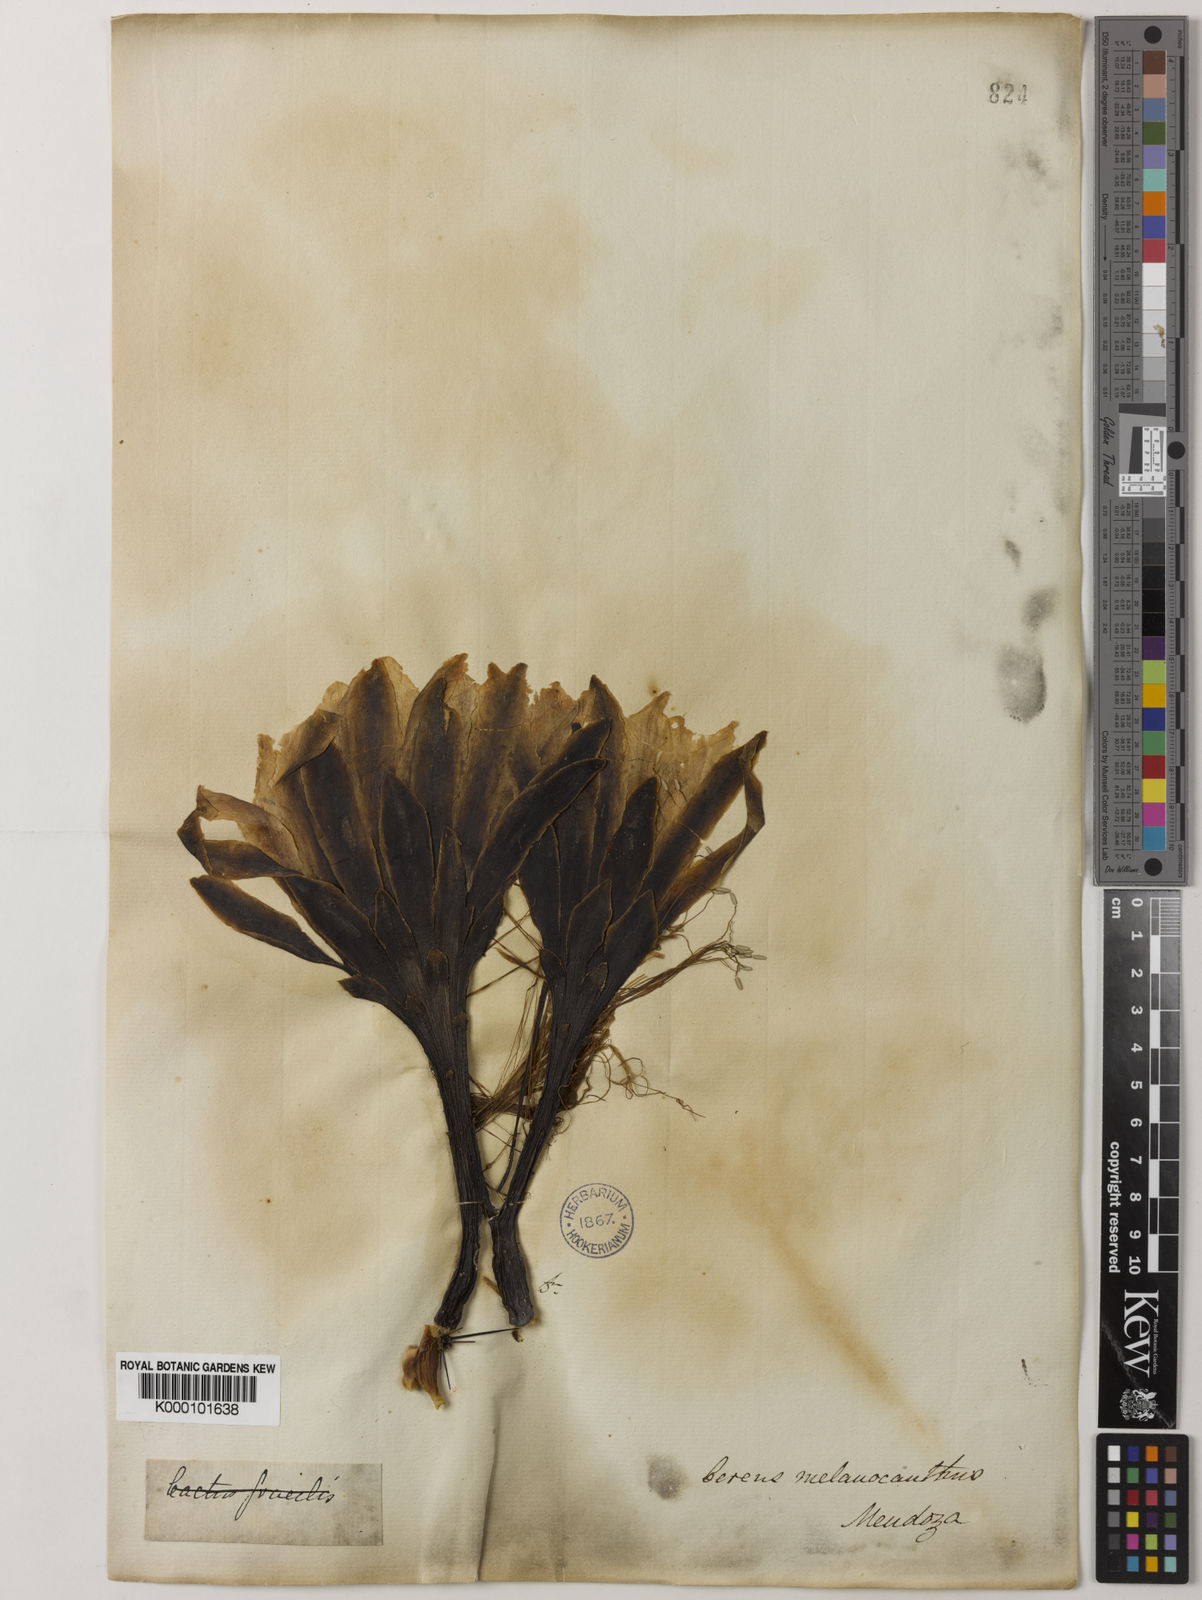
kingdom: Plantae
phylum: Tracheophyta
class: Magnoliopsida
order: Caryophyllales
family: Cactaceae
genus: Cereus
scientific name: Cereus aethiops
